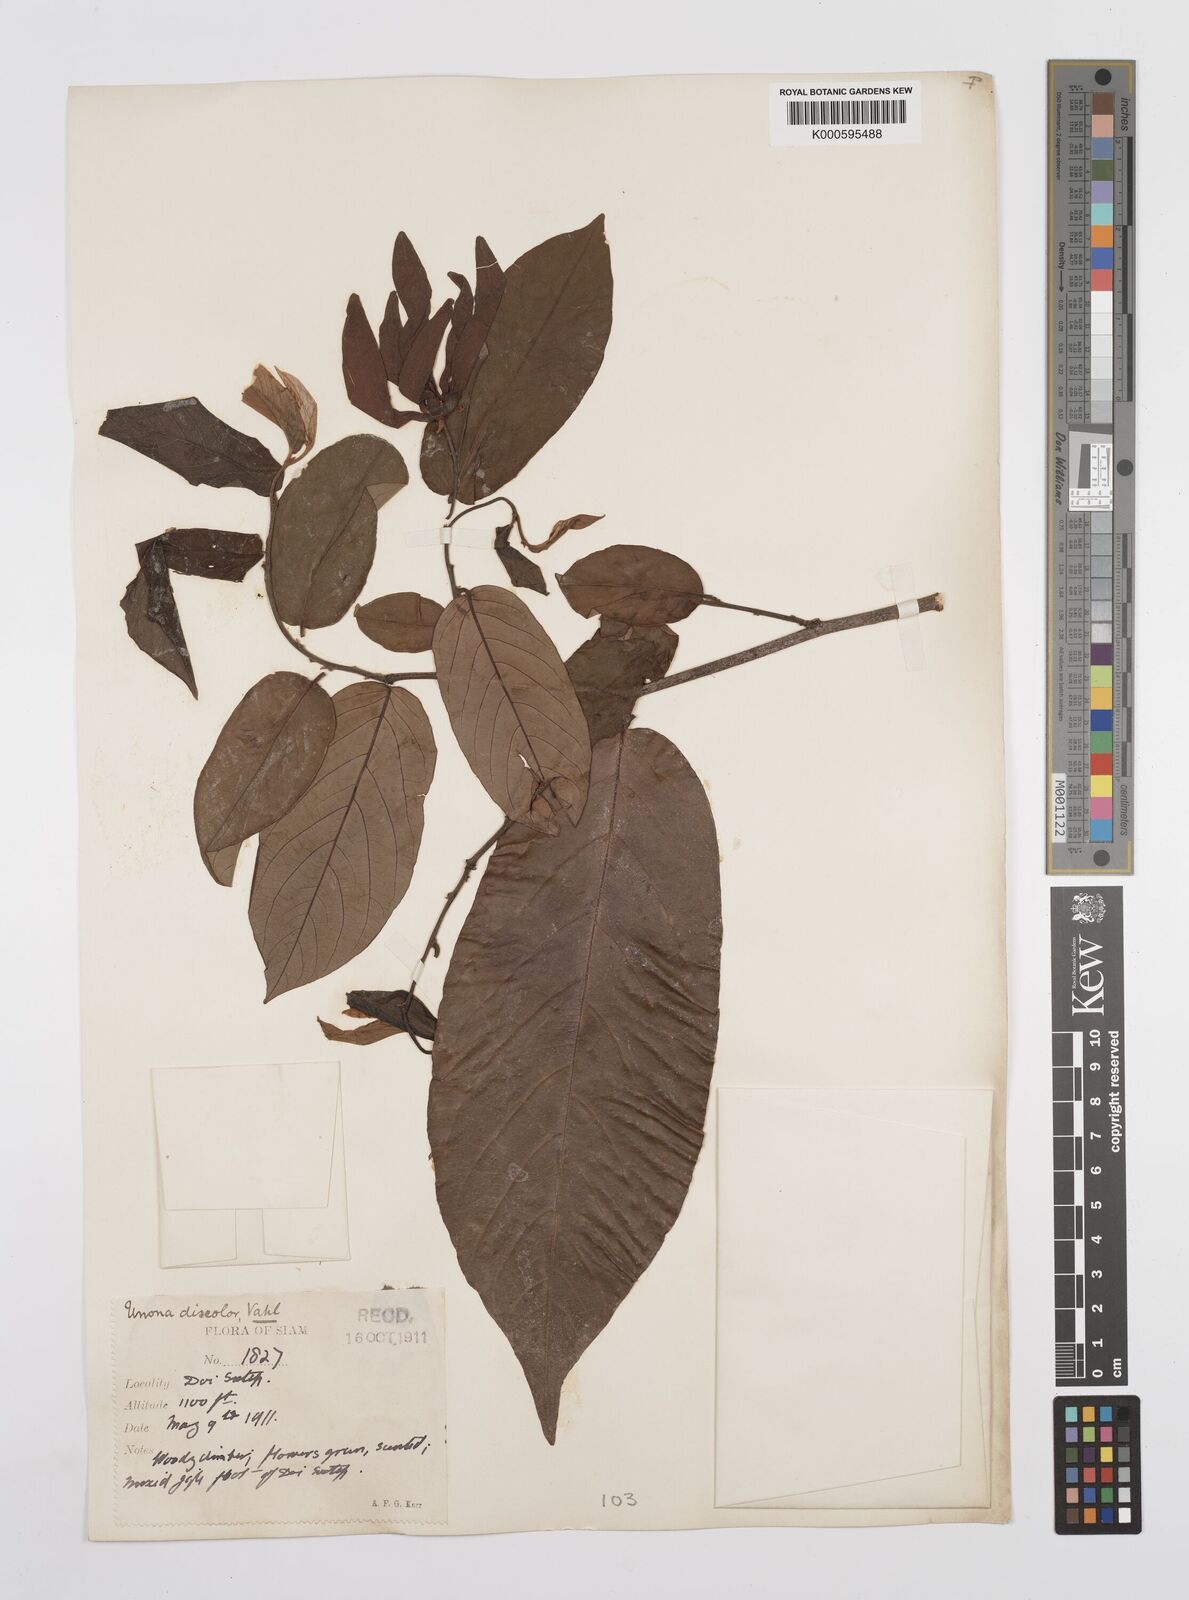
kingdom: Plantae
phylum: Tracheophyta
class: Magnoliopsida
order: Magnoliales
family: Annonaceae
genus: Desmos
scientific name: Desmos chinensis
